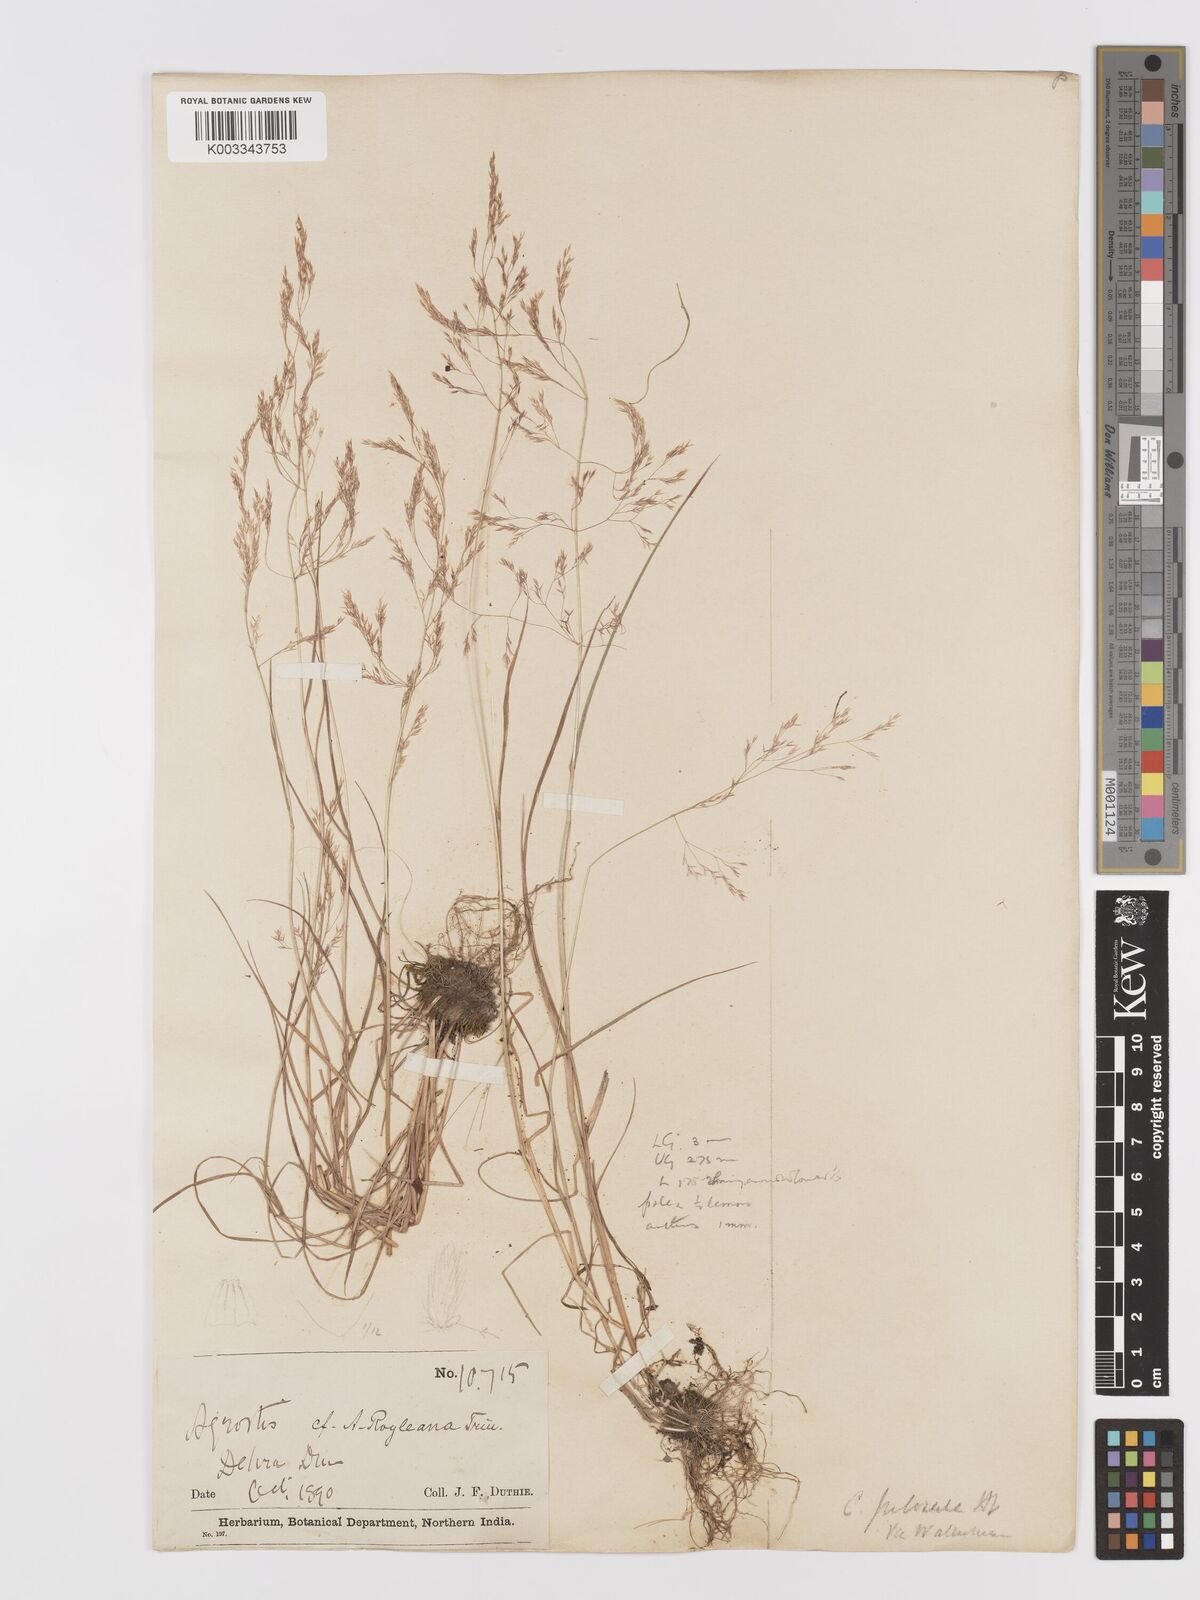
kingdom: Plantae
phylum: Tracheophyta
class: Liliopsida
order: Poales
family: Poaceae
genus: Agrostis
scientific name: Agrostis pilosula
